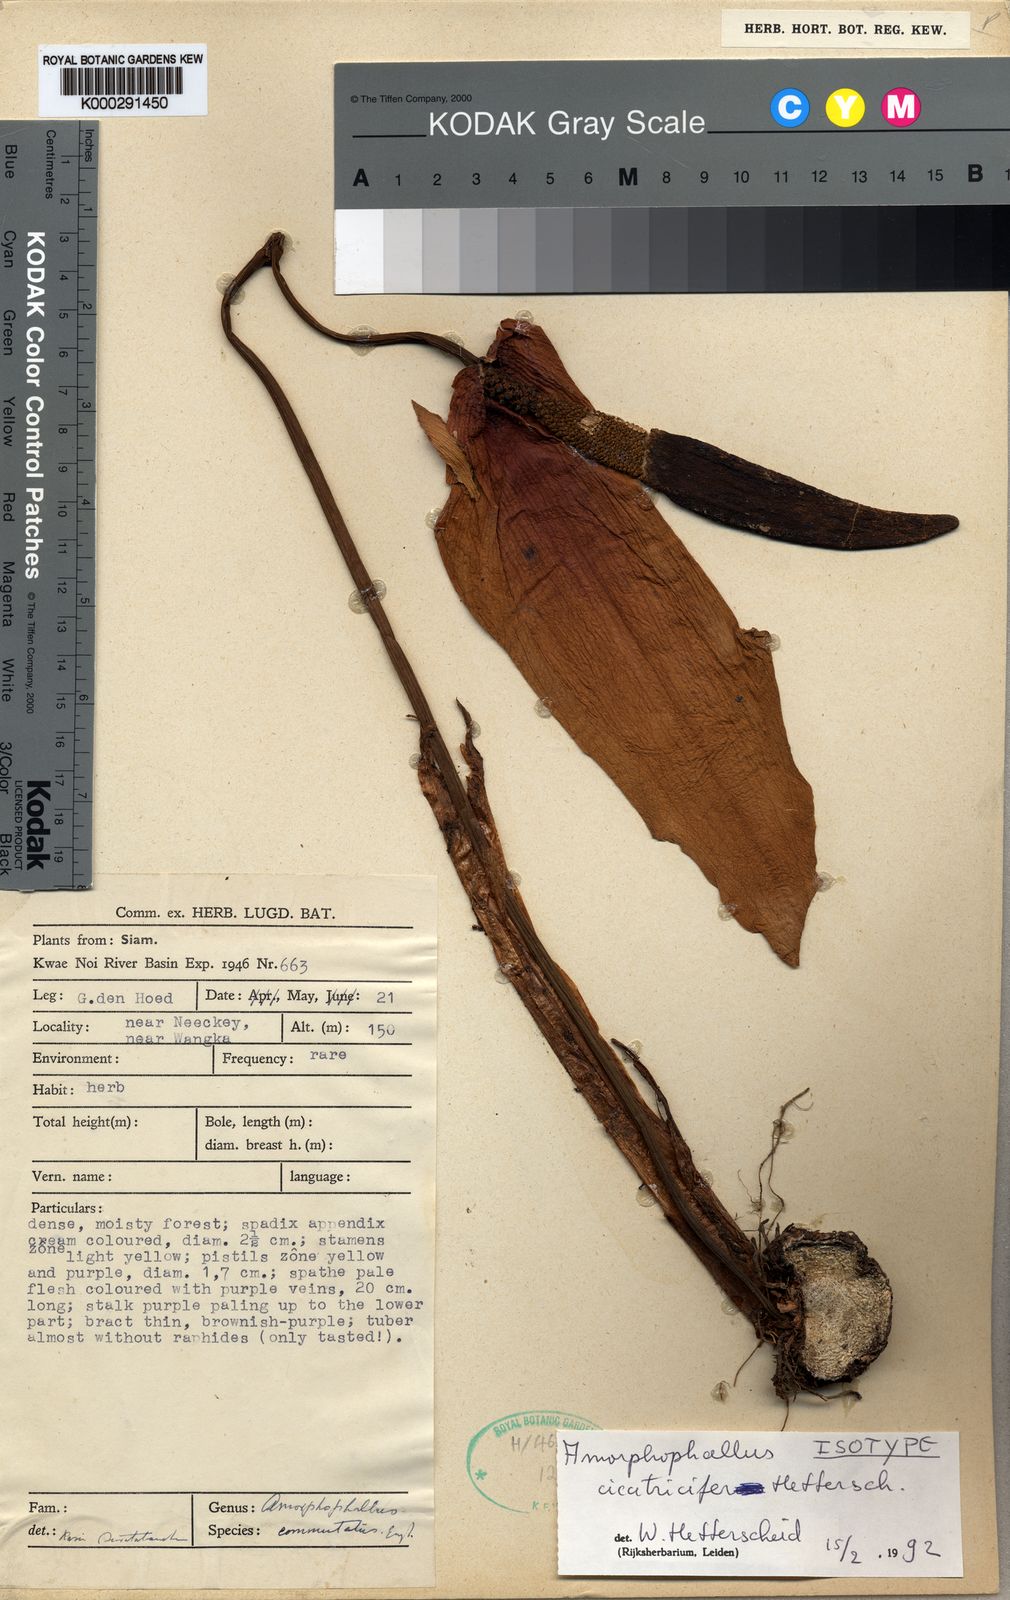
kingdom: Plantae
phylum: Tracheophyta
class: Liliopsida
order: Alismatales
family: Araceae
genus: Amorphophallus
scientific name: Amorphophallus cicatricifer
